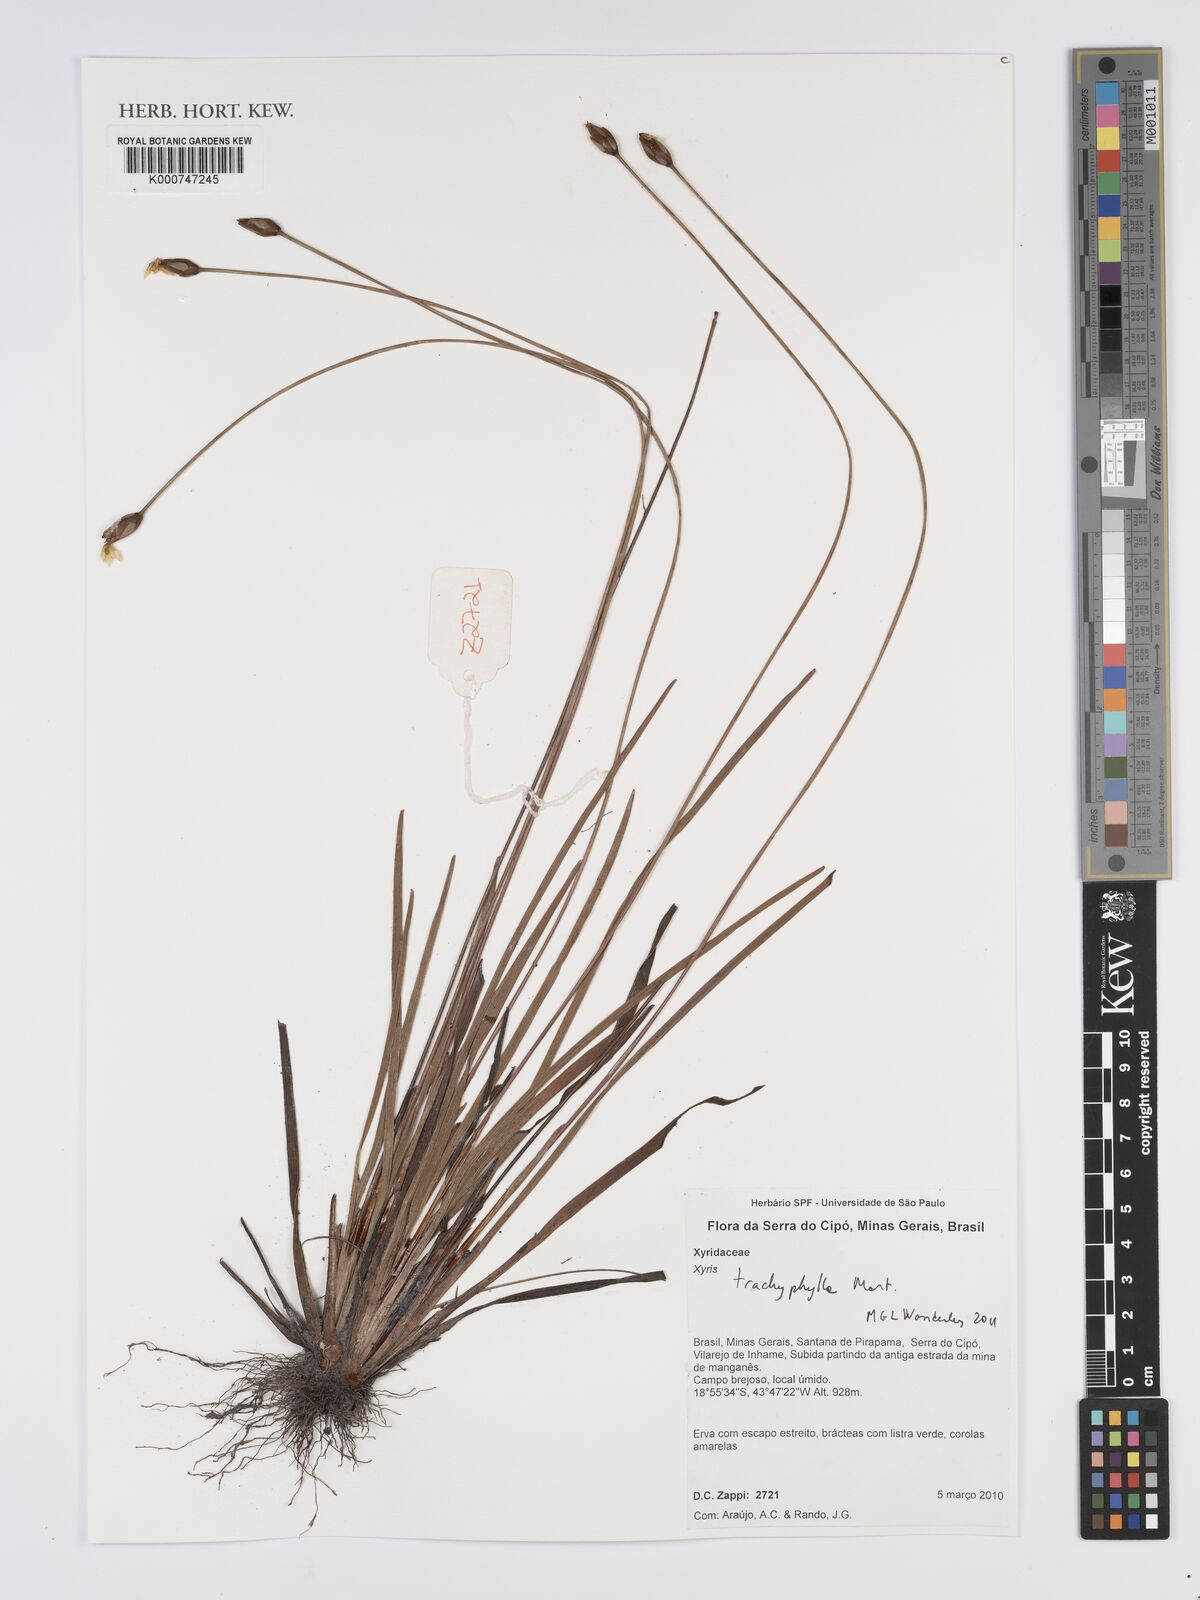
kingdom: Plantae
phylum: Tracheophyta
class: Liliopsida
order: Poales
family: Xyridaceae
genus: Xyris
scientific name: Xyris trachyphylla
